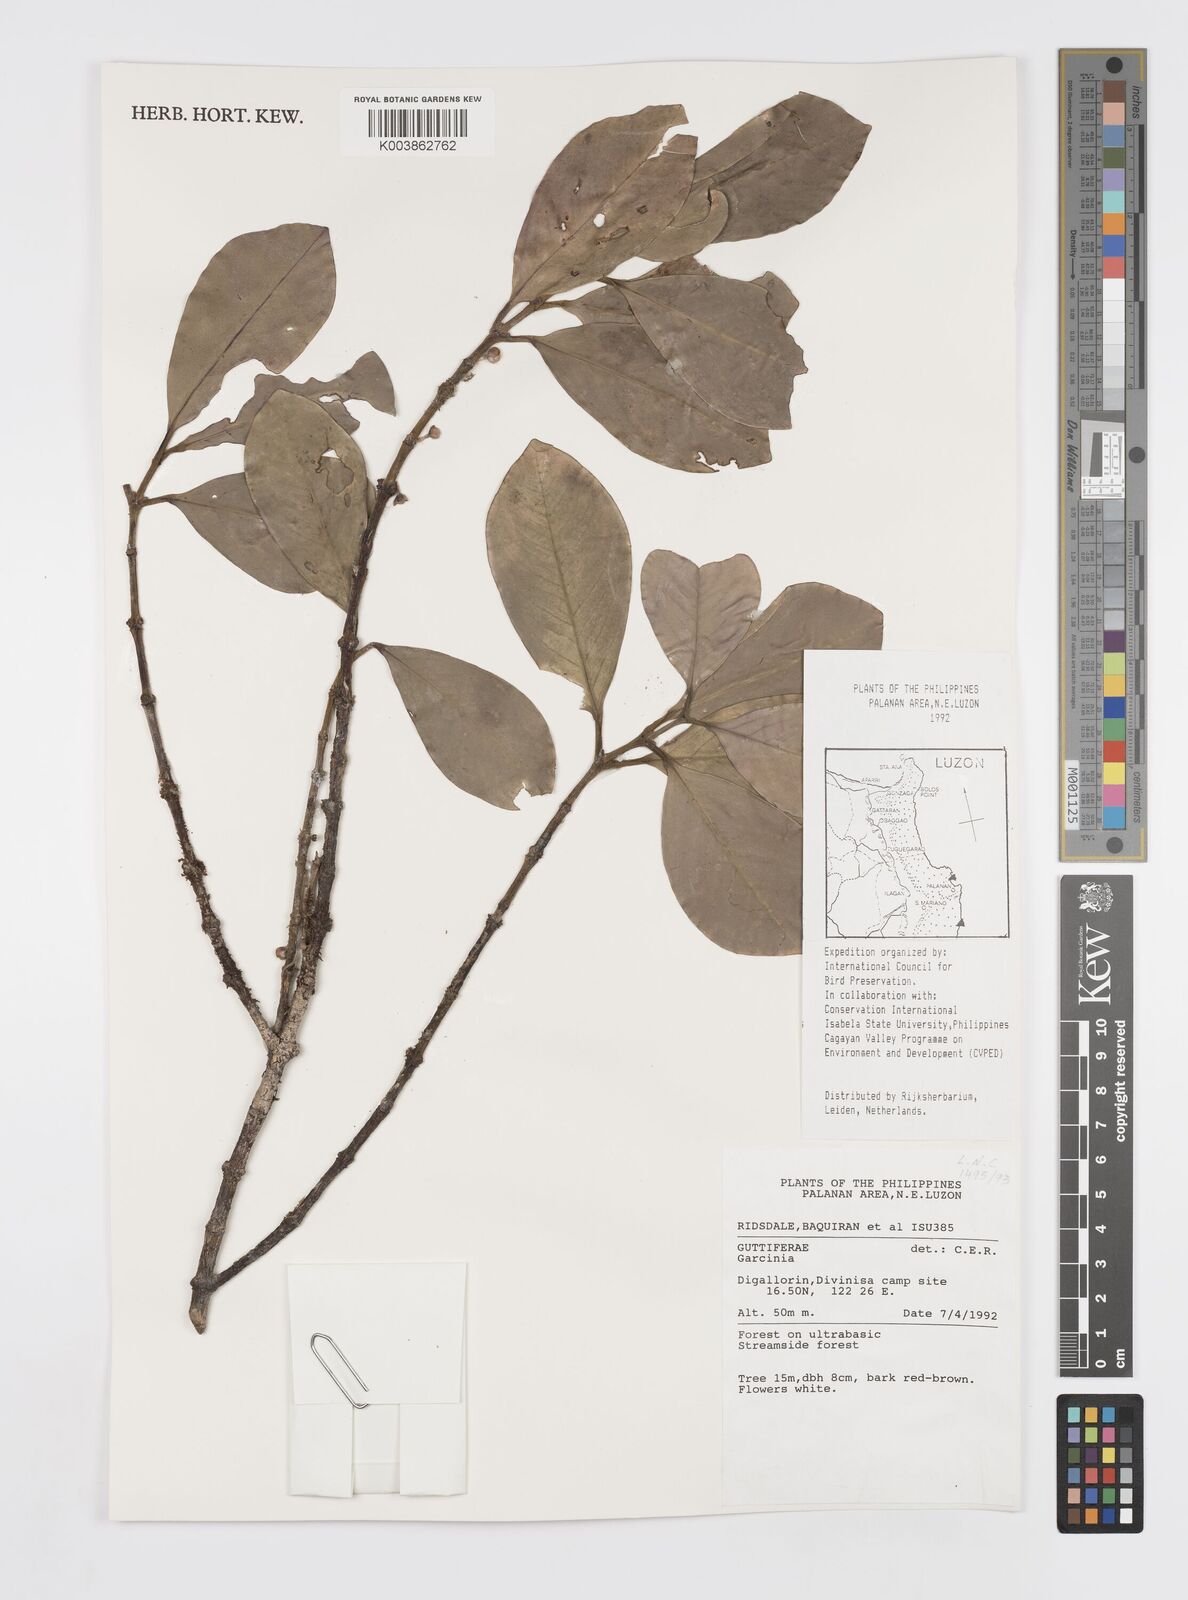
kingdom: Plantae
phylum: Tracheophyta
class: Magnoliopsida
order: Malpighiales
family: Clusiaceae
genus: Garcinia
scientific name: Garcinia
